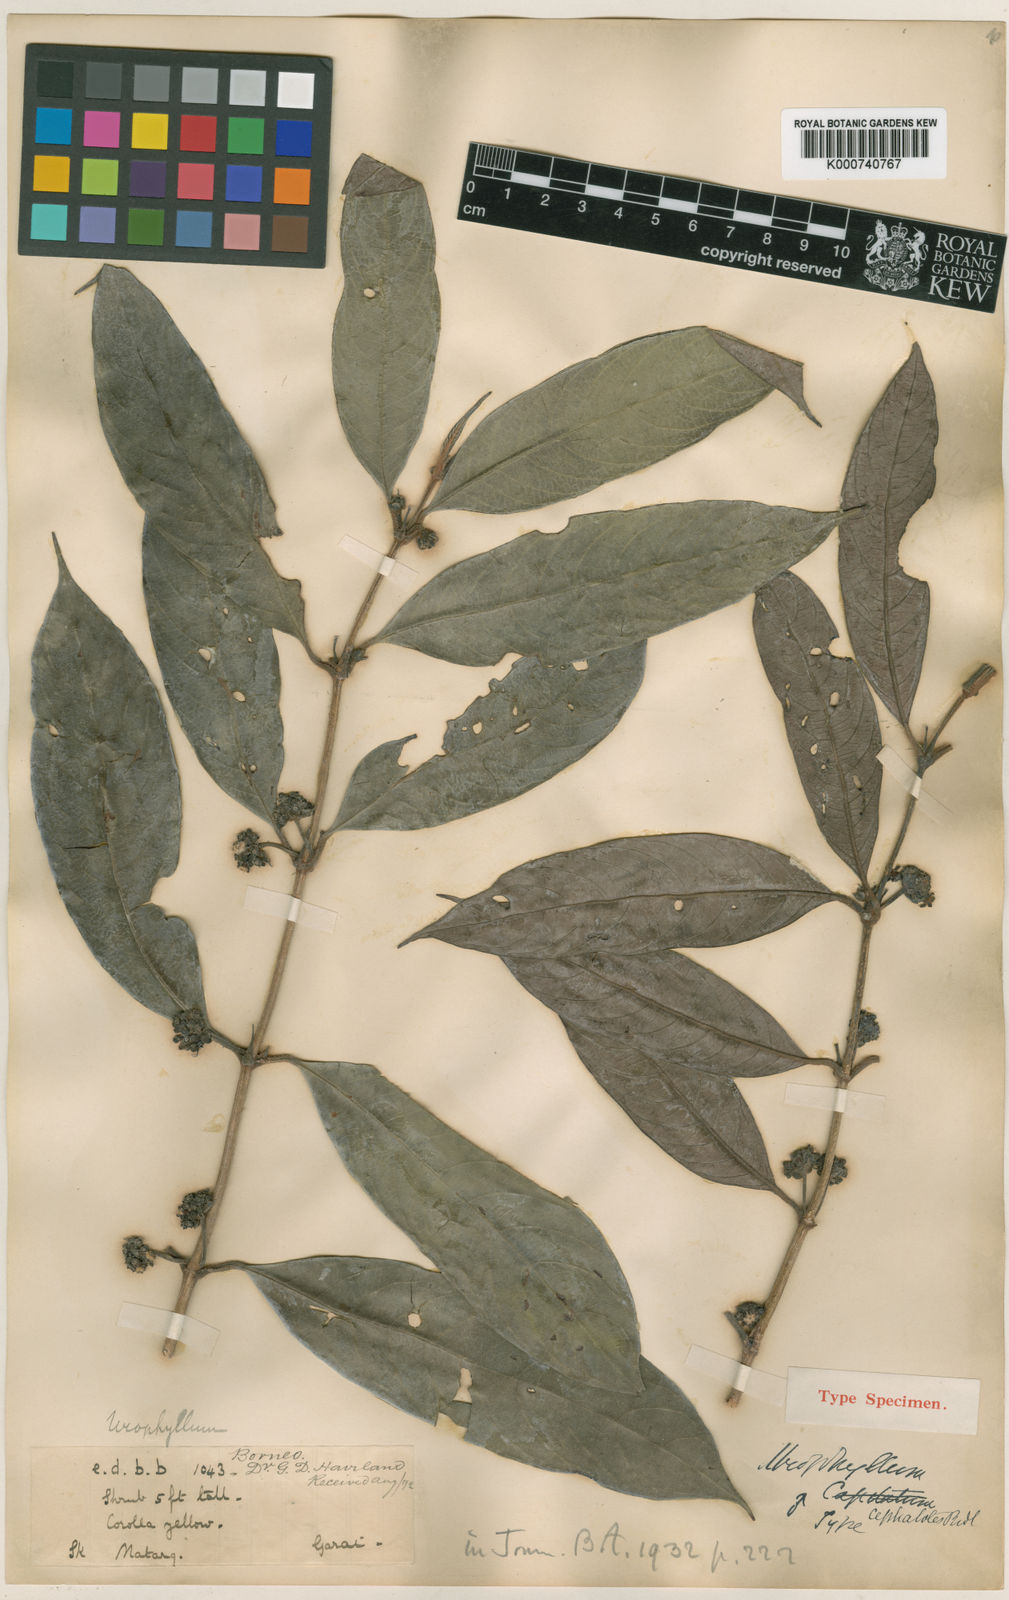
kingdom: Plantae
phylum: Tracheophyta
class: Magnoliopsida
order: Gentianales
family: Rubiaceae
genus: Urophyllum
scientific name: Urophyllum cephalotes
